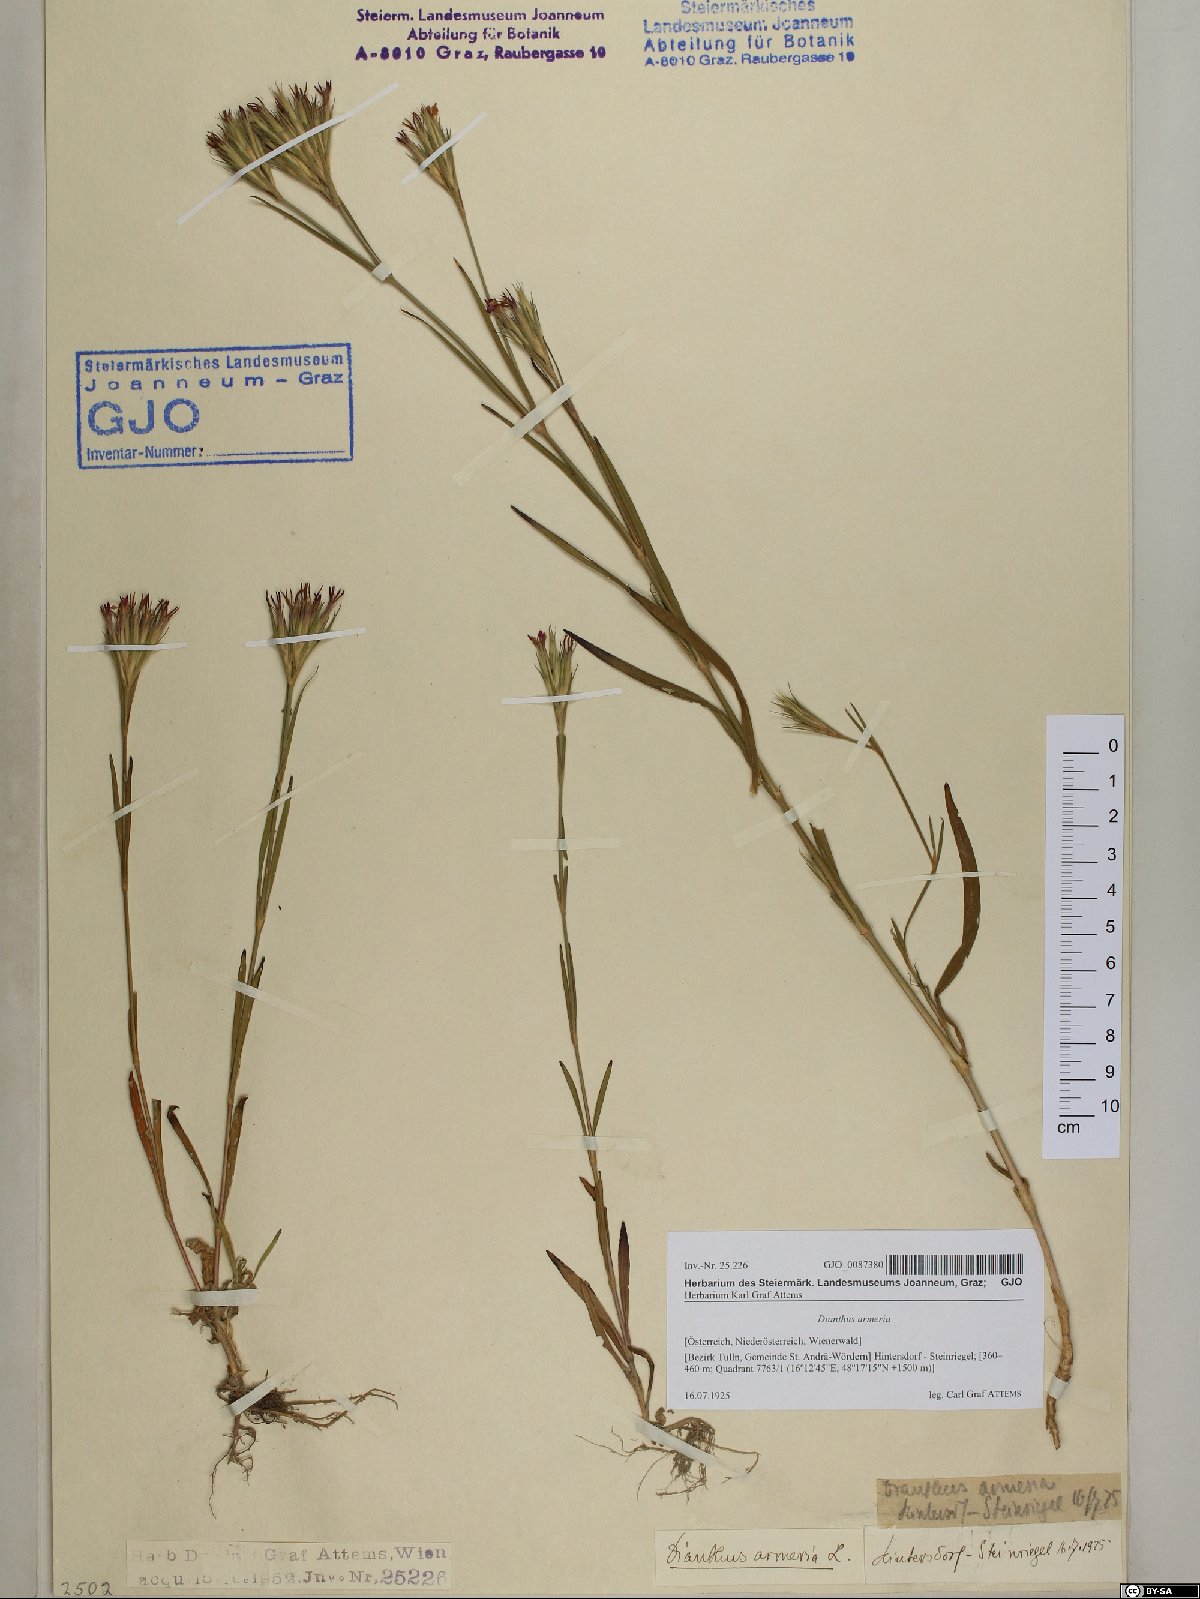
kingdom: Plantae
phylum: Tracheophyta
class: Magnoliopsida
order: Caryophyllales
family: Caryophyllaceae
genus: Dianthus
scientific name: Dianthus armeria
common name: Deptford pink
